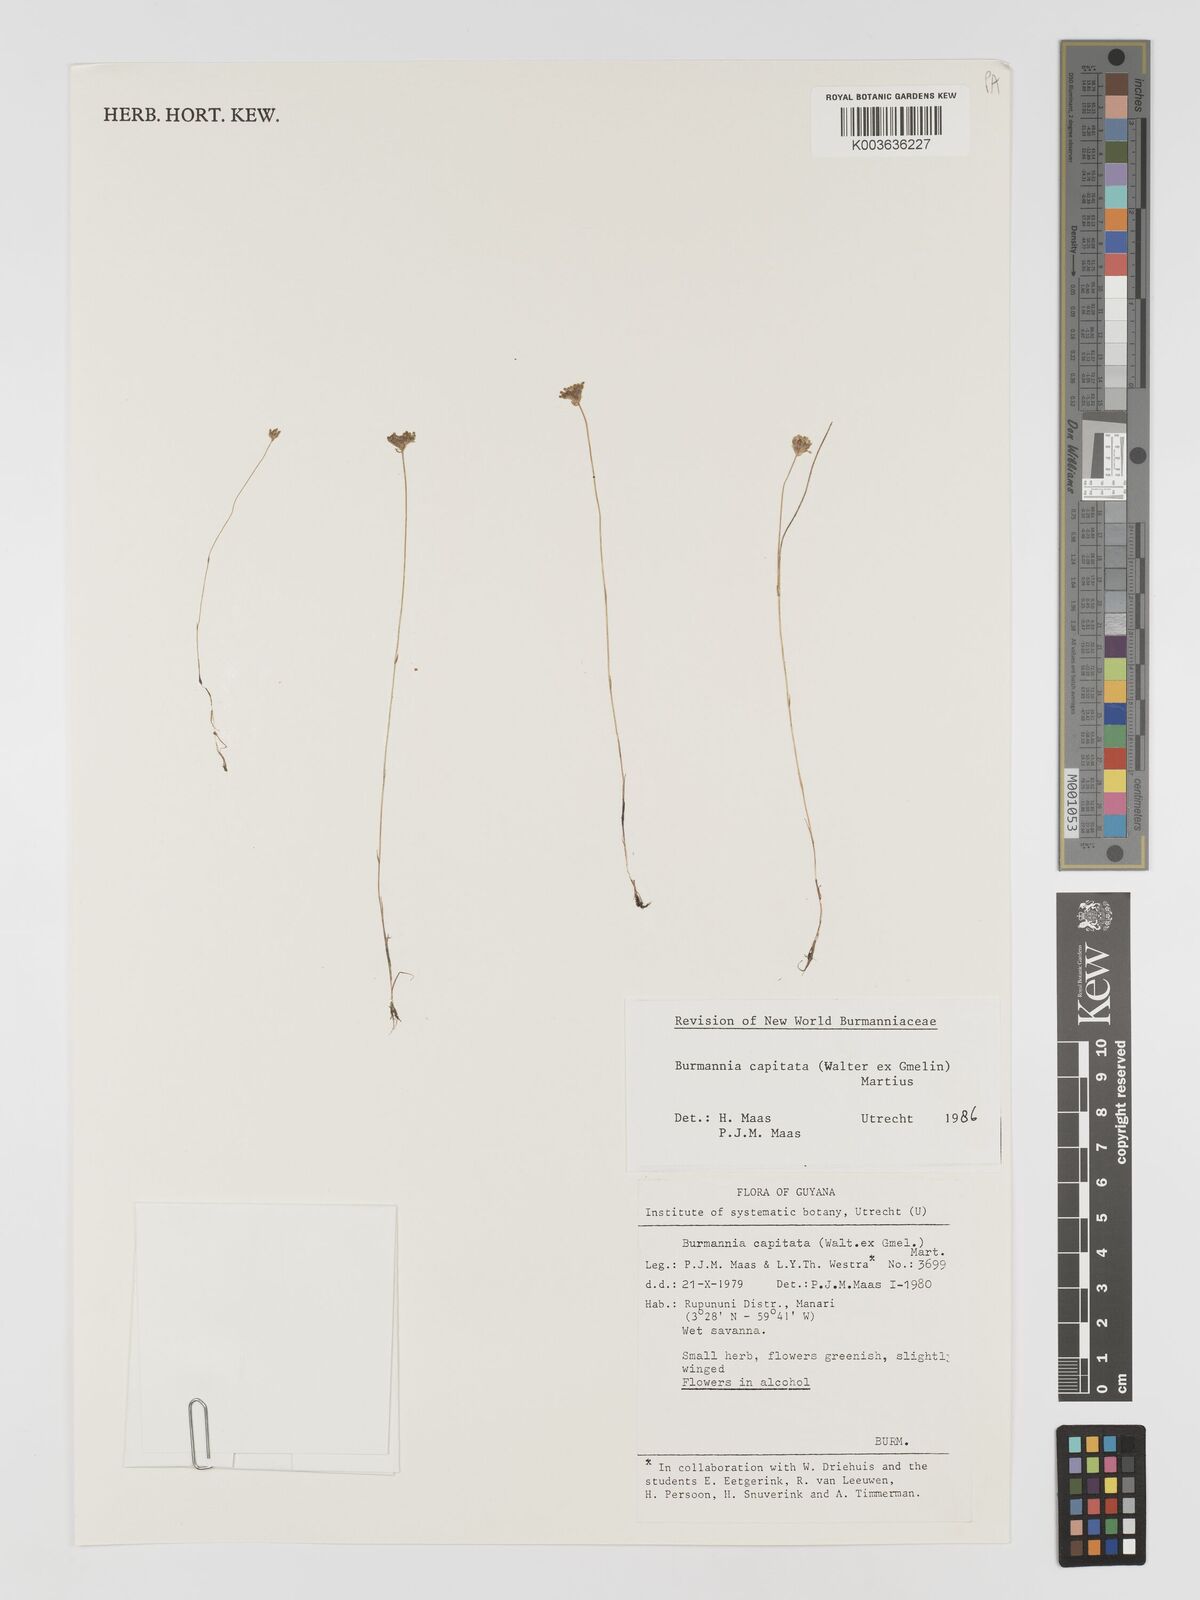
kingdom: Plantae
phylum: Tracheophyta
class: Liliopsida
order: Dioscoreales
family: Burmanniaceae
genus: Burmannia
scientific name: Burmannia capitata
